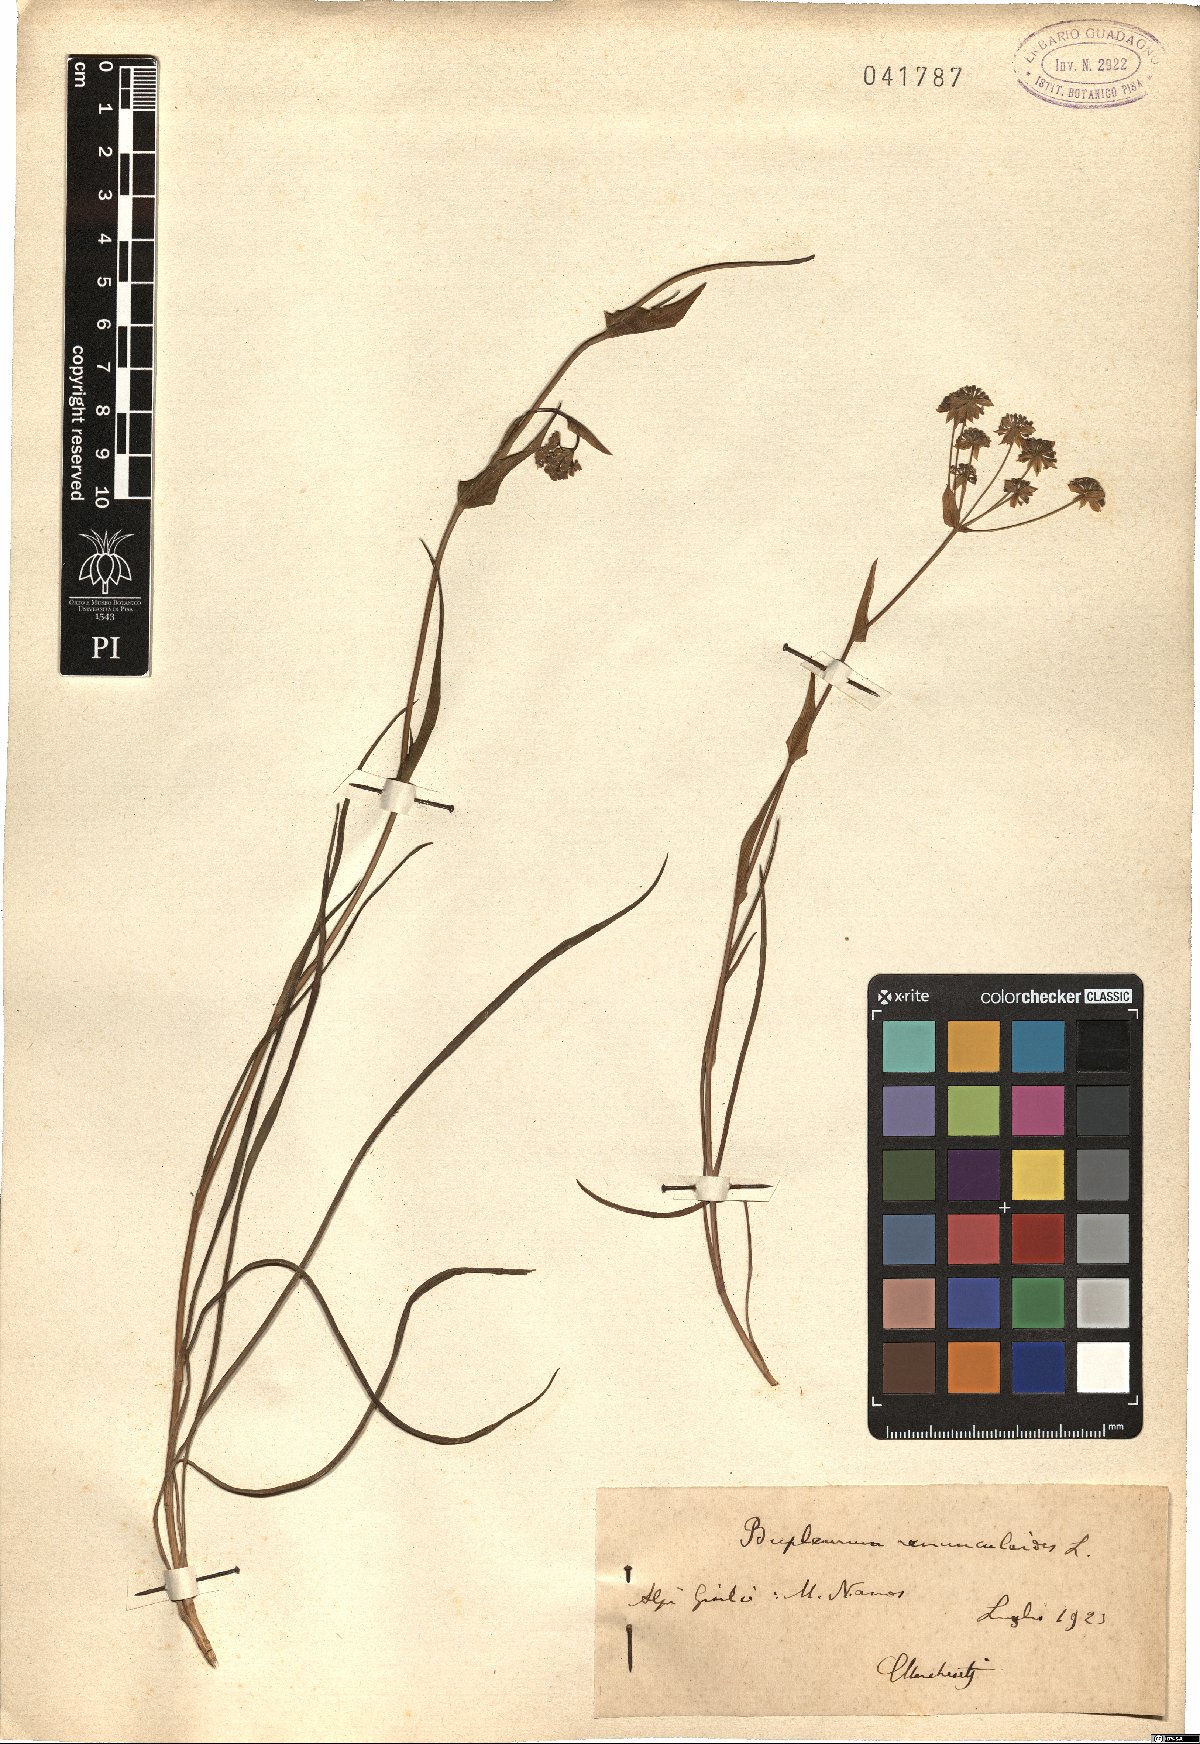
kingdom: Plantae
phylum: Tracheophyta
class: Magnoliopsida
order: Apiales
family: Apiaceae
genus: Bupleurum
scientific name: Bupleurum ranunculoides
